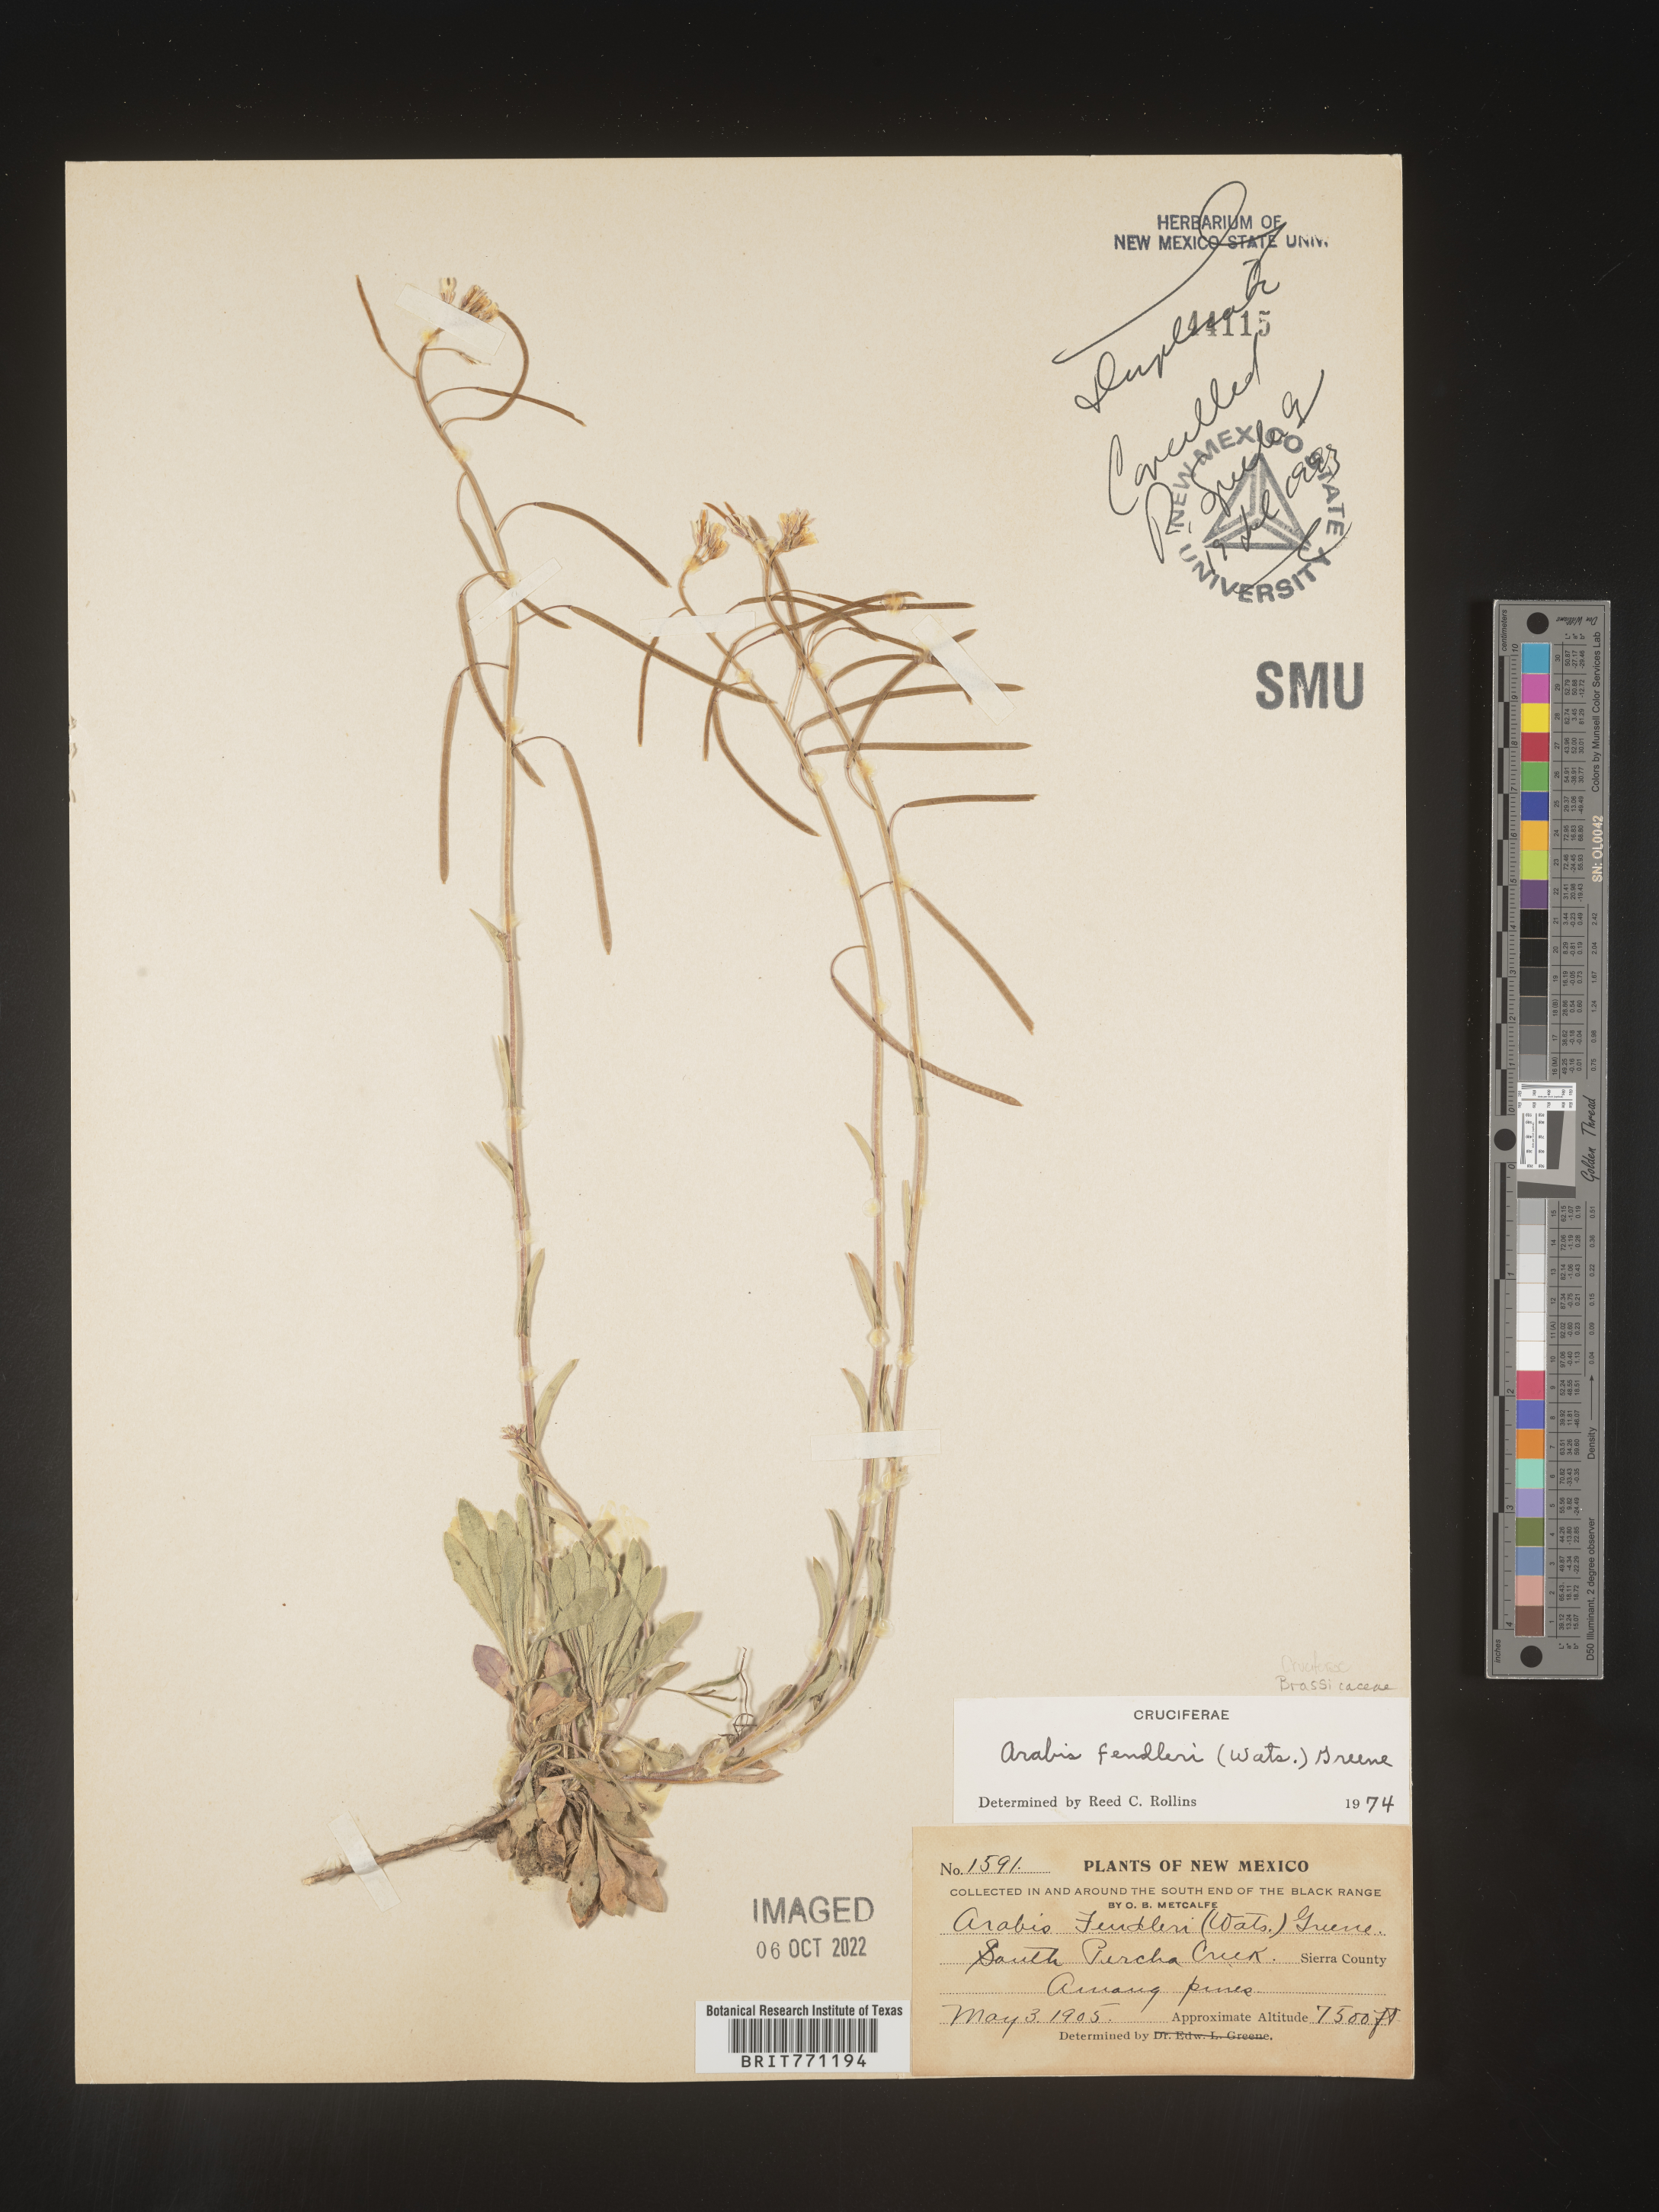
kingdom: Plantae
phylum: Tracheophyta
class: Magnoliopsida
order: Brassicales
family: Brassicaceae
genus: Arabis
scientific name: Arabis
